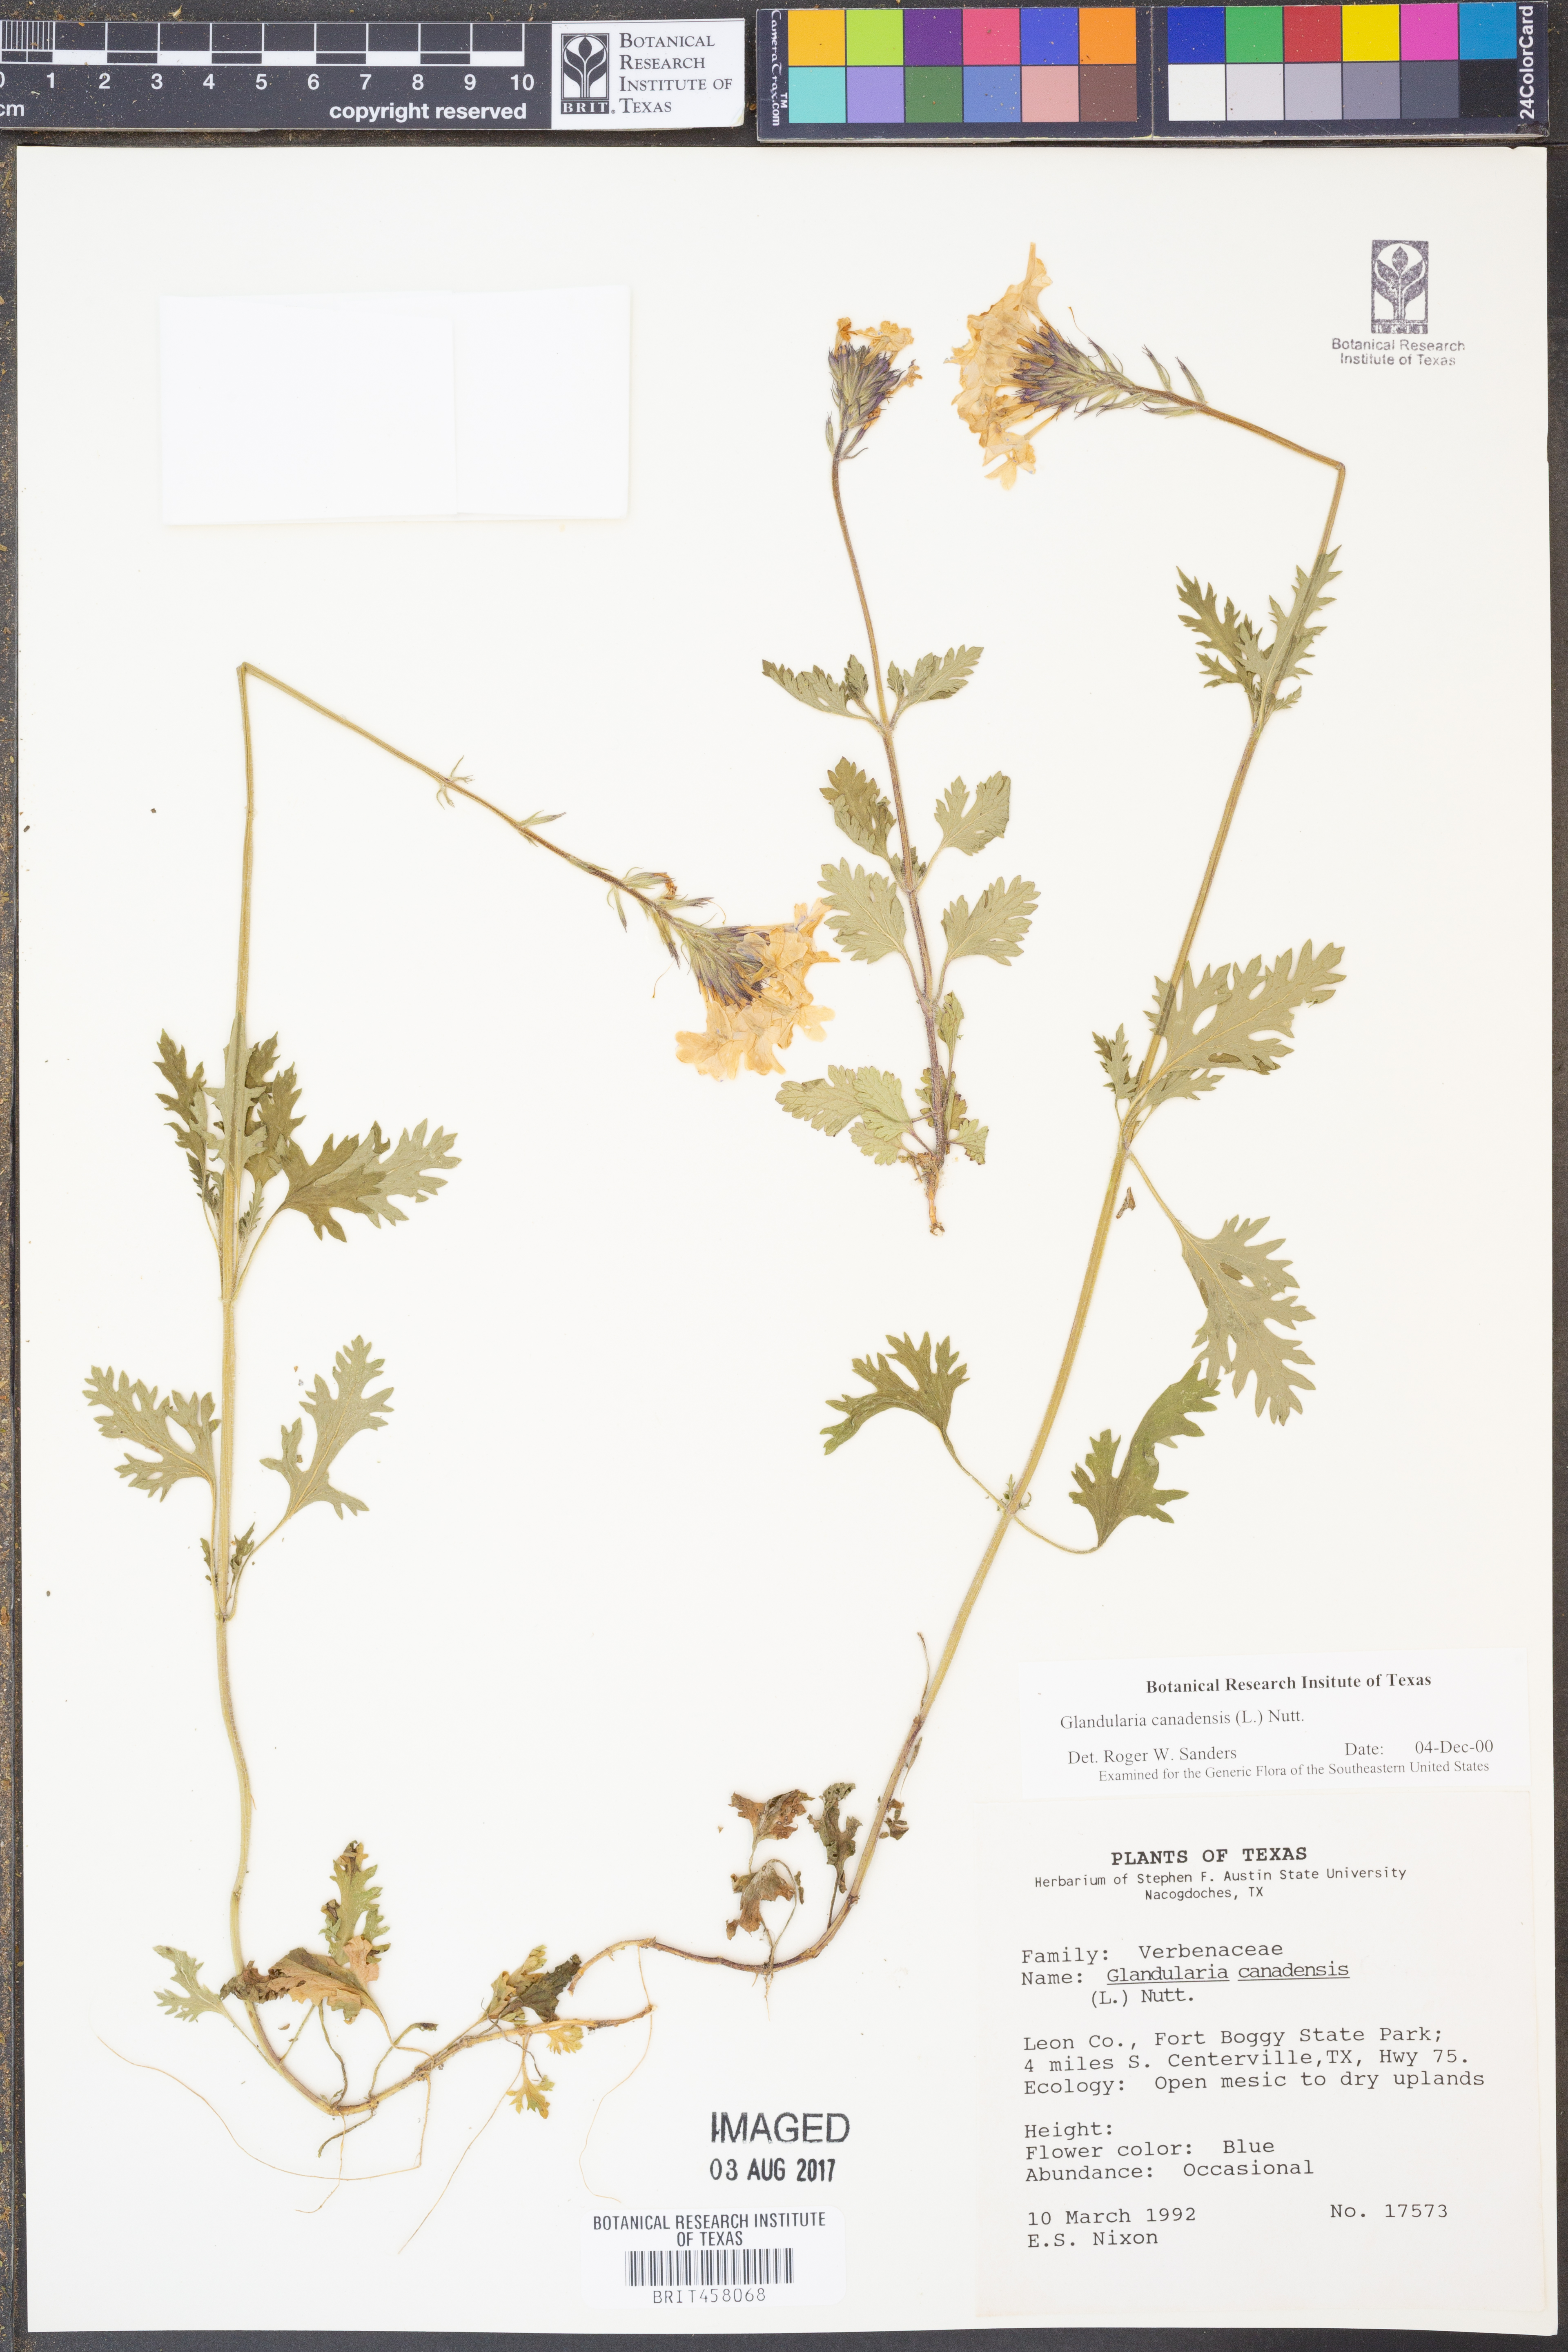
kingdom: Plantae
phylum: Tracheophyta
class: Magnoliopsida
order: Lamiales
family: Verbenaceae
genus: Verbena
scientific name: Verbena canadensis
